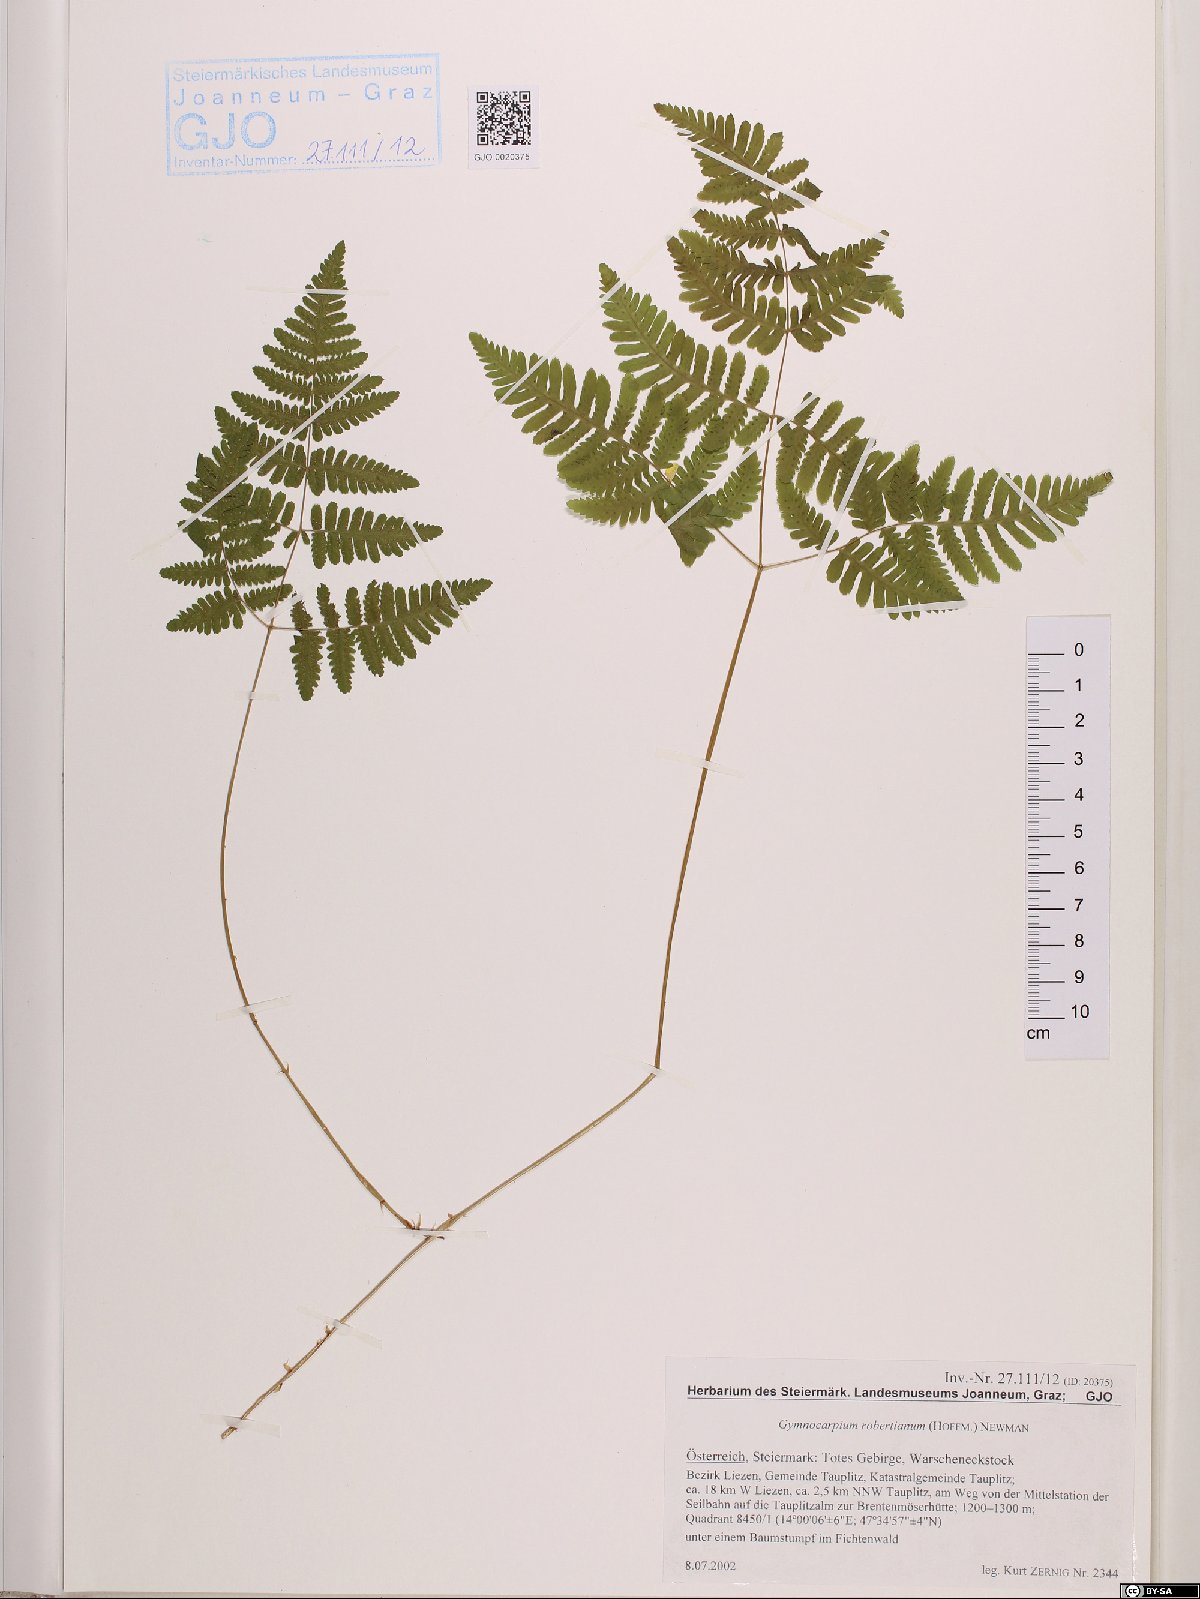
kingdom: Plantae
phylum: Tracheophyta
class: Polypodiopsida
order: Polypodiales
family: Cystopteridaceae
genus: Gymnocarpium
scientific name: Gymnocarpium robertianum
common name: Limestone fern
